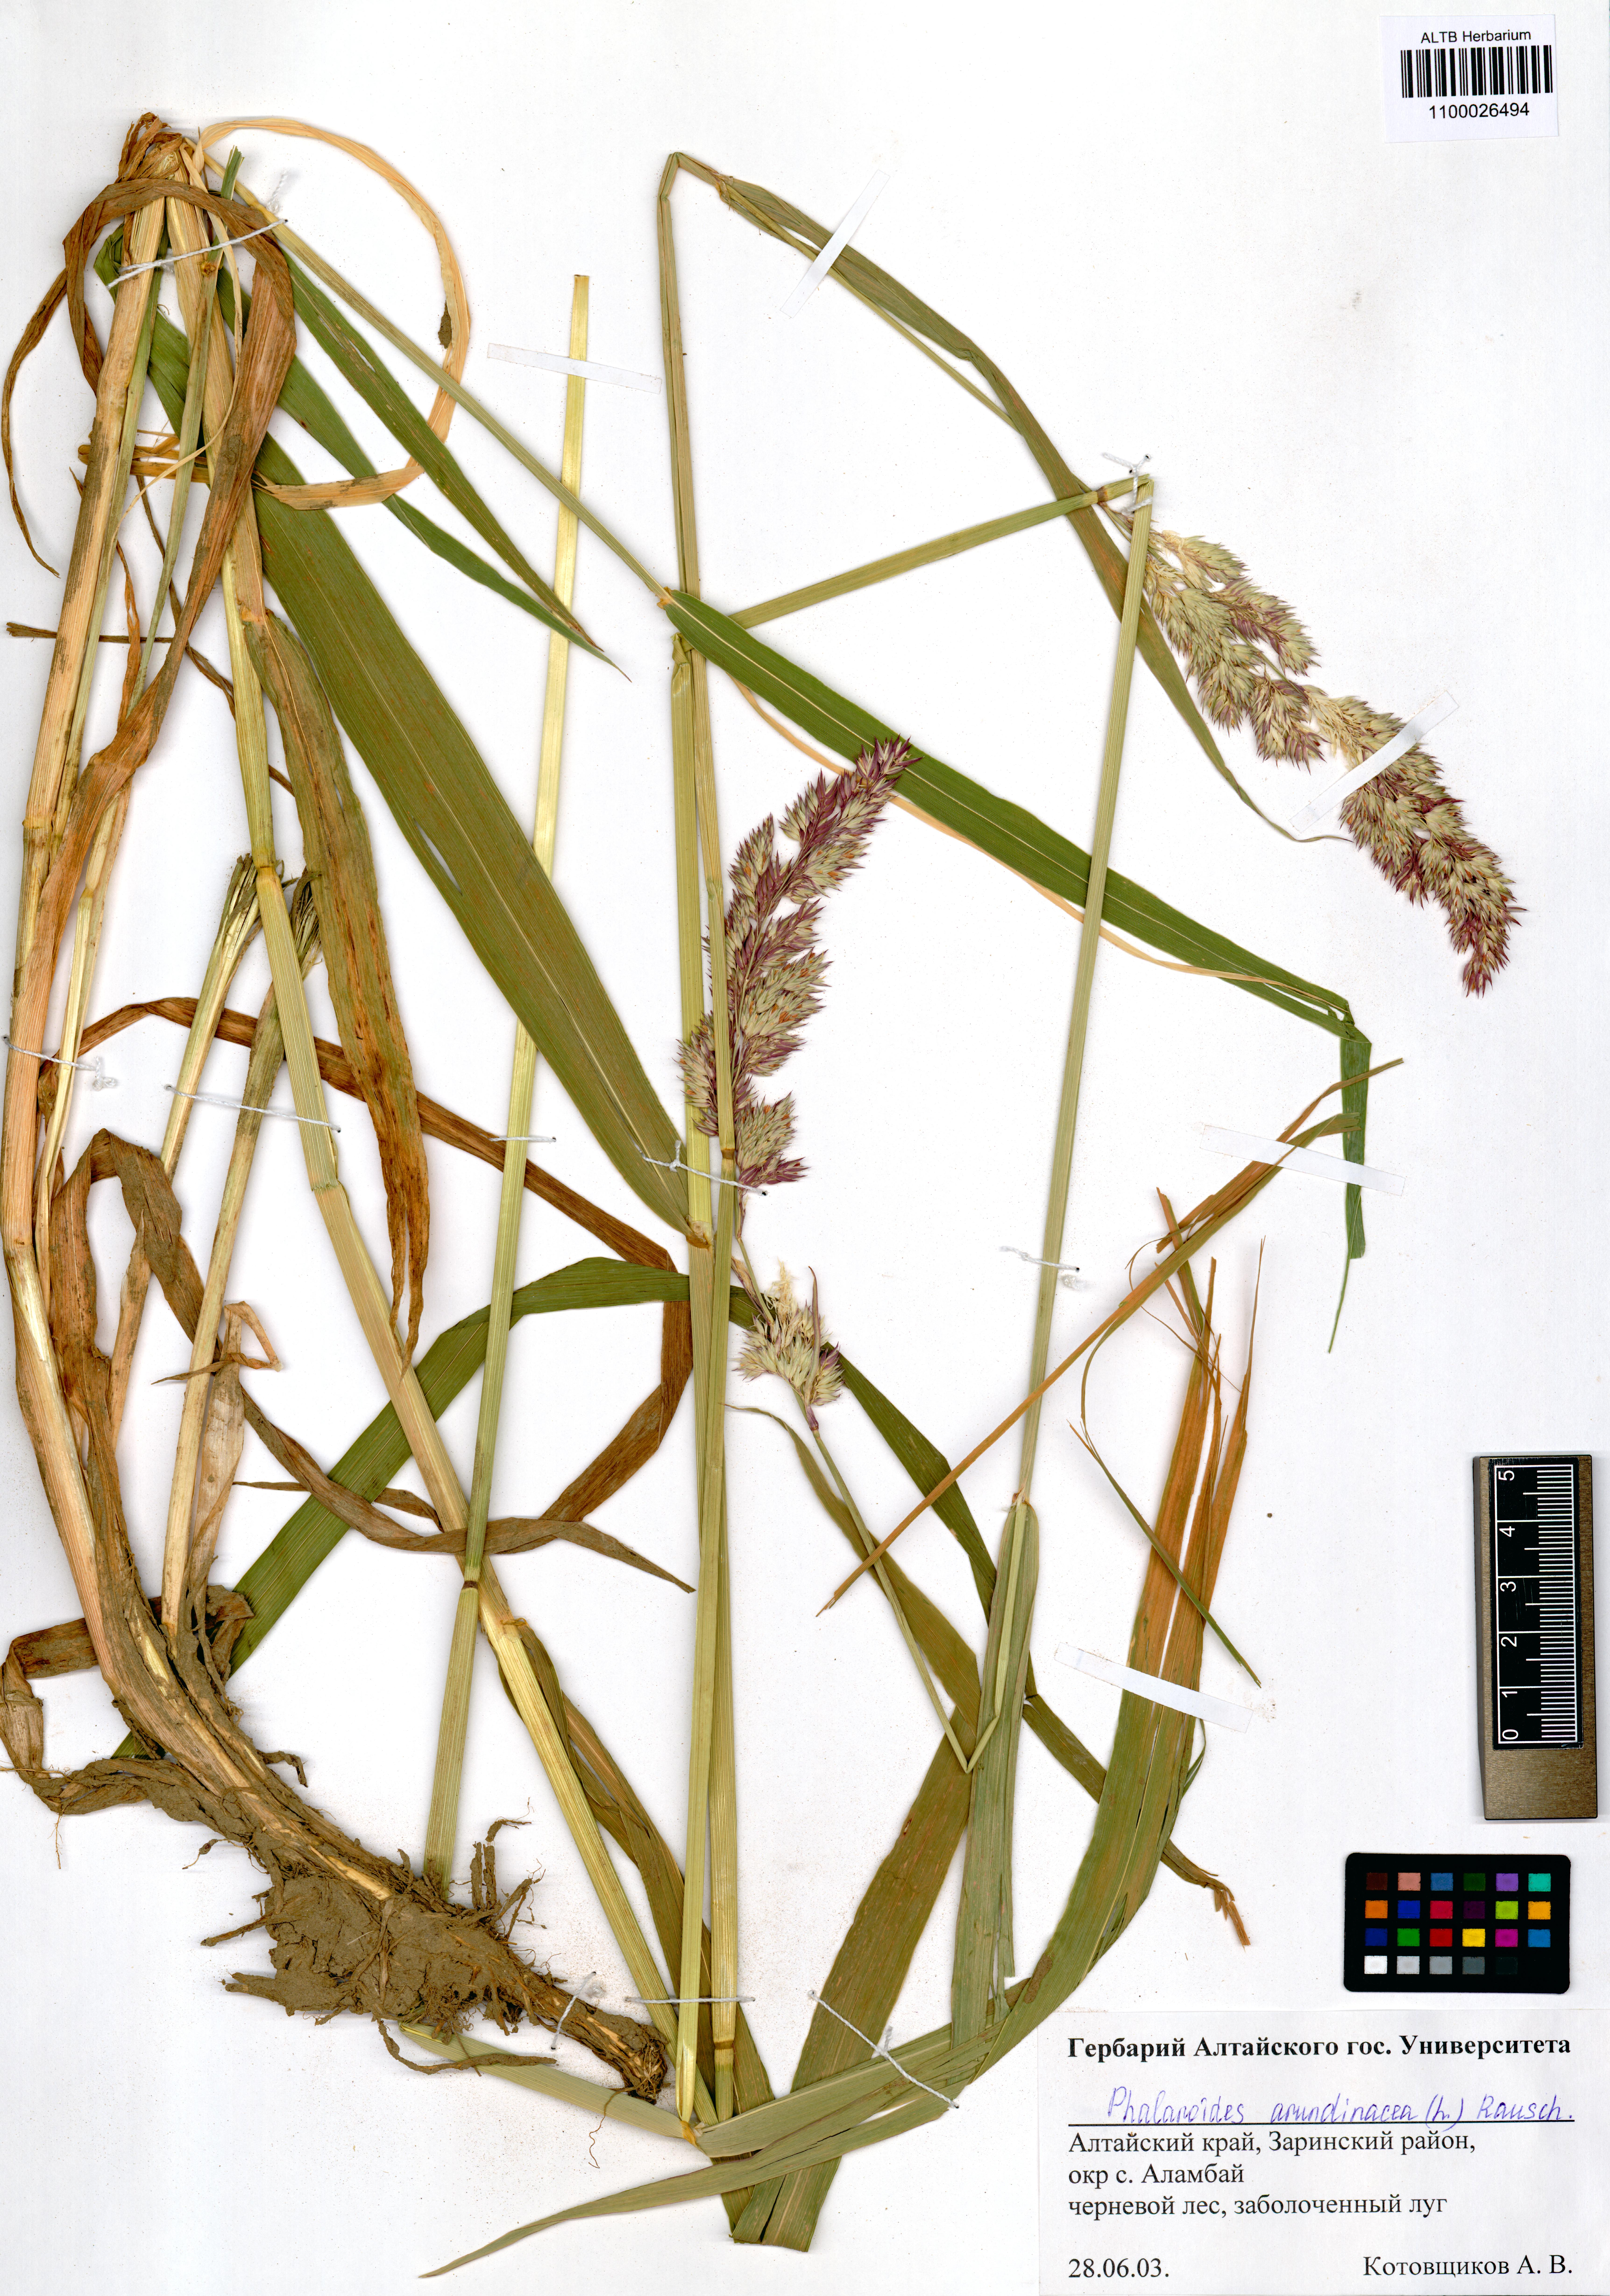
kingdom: Plantae
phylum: Tracheophyta
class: Liliopsida
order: Poales
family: Poaceae
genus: Phalaris
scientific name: Phalaris arundinacea
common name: Reed canary-grass
